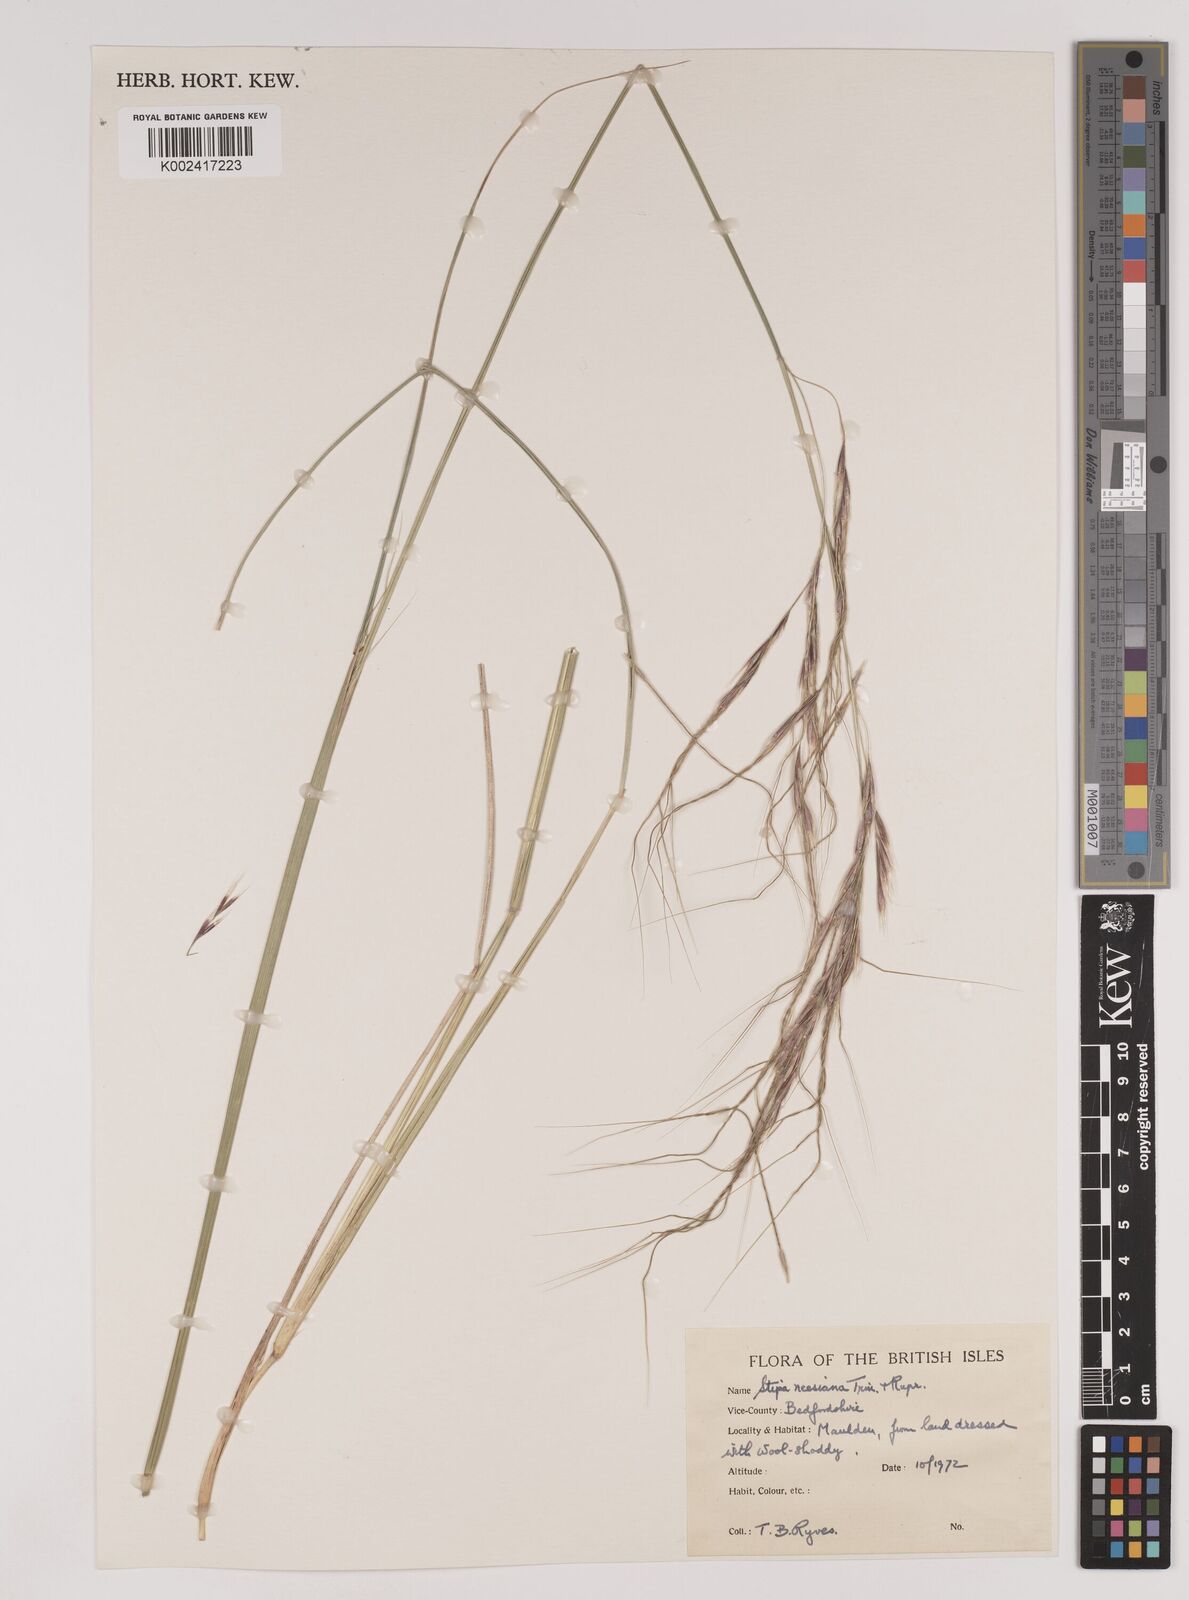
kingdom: Plantae
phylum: Tracheophyta
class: Liliopsida
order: Poales
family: Poaceae
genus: Nassella
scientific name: Nassella neesiana
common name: American needle-grass
